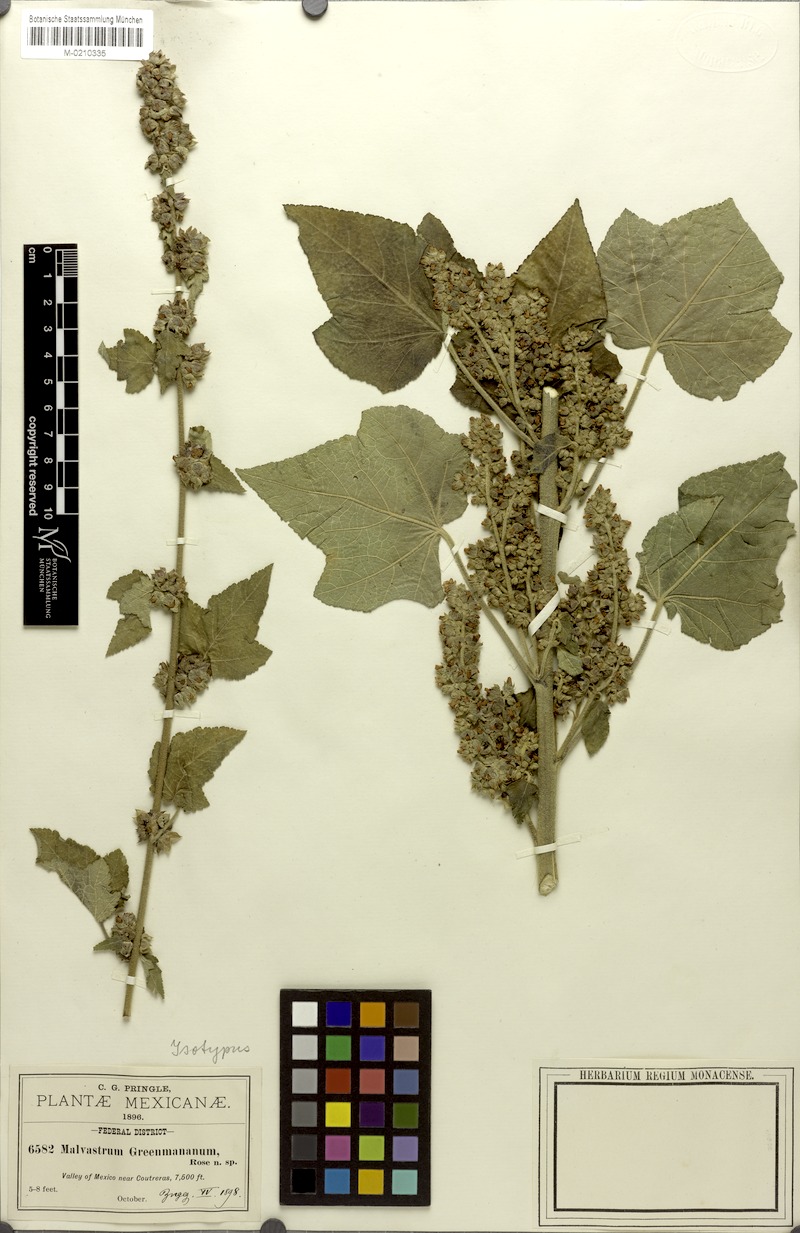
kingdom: Plantae
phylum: Tracheophyta
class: Magnoliopsida
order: Malvales
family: Malvaceae
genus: Kearnemalvastrum
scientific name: Kearnemalvastrum subtriflorum
